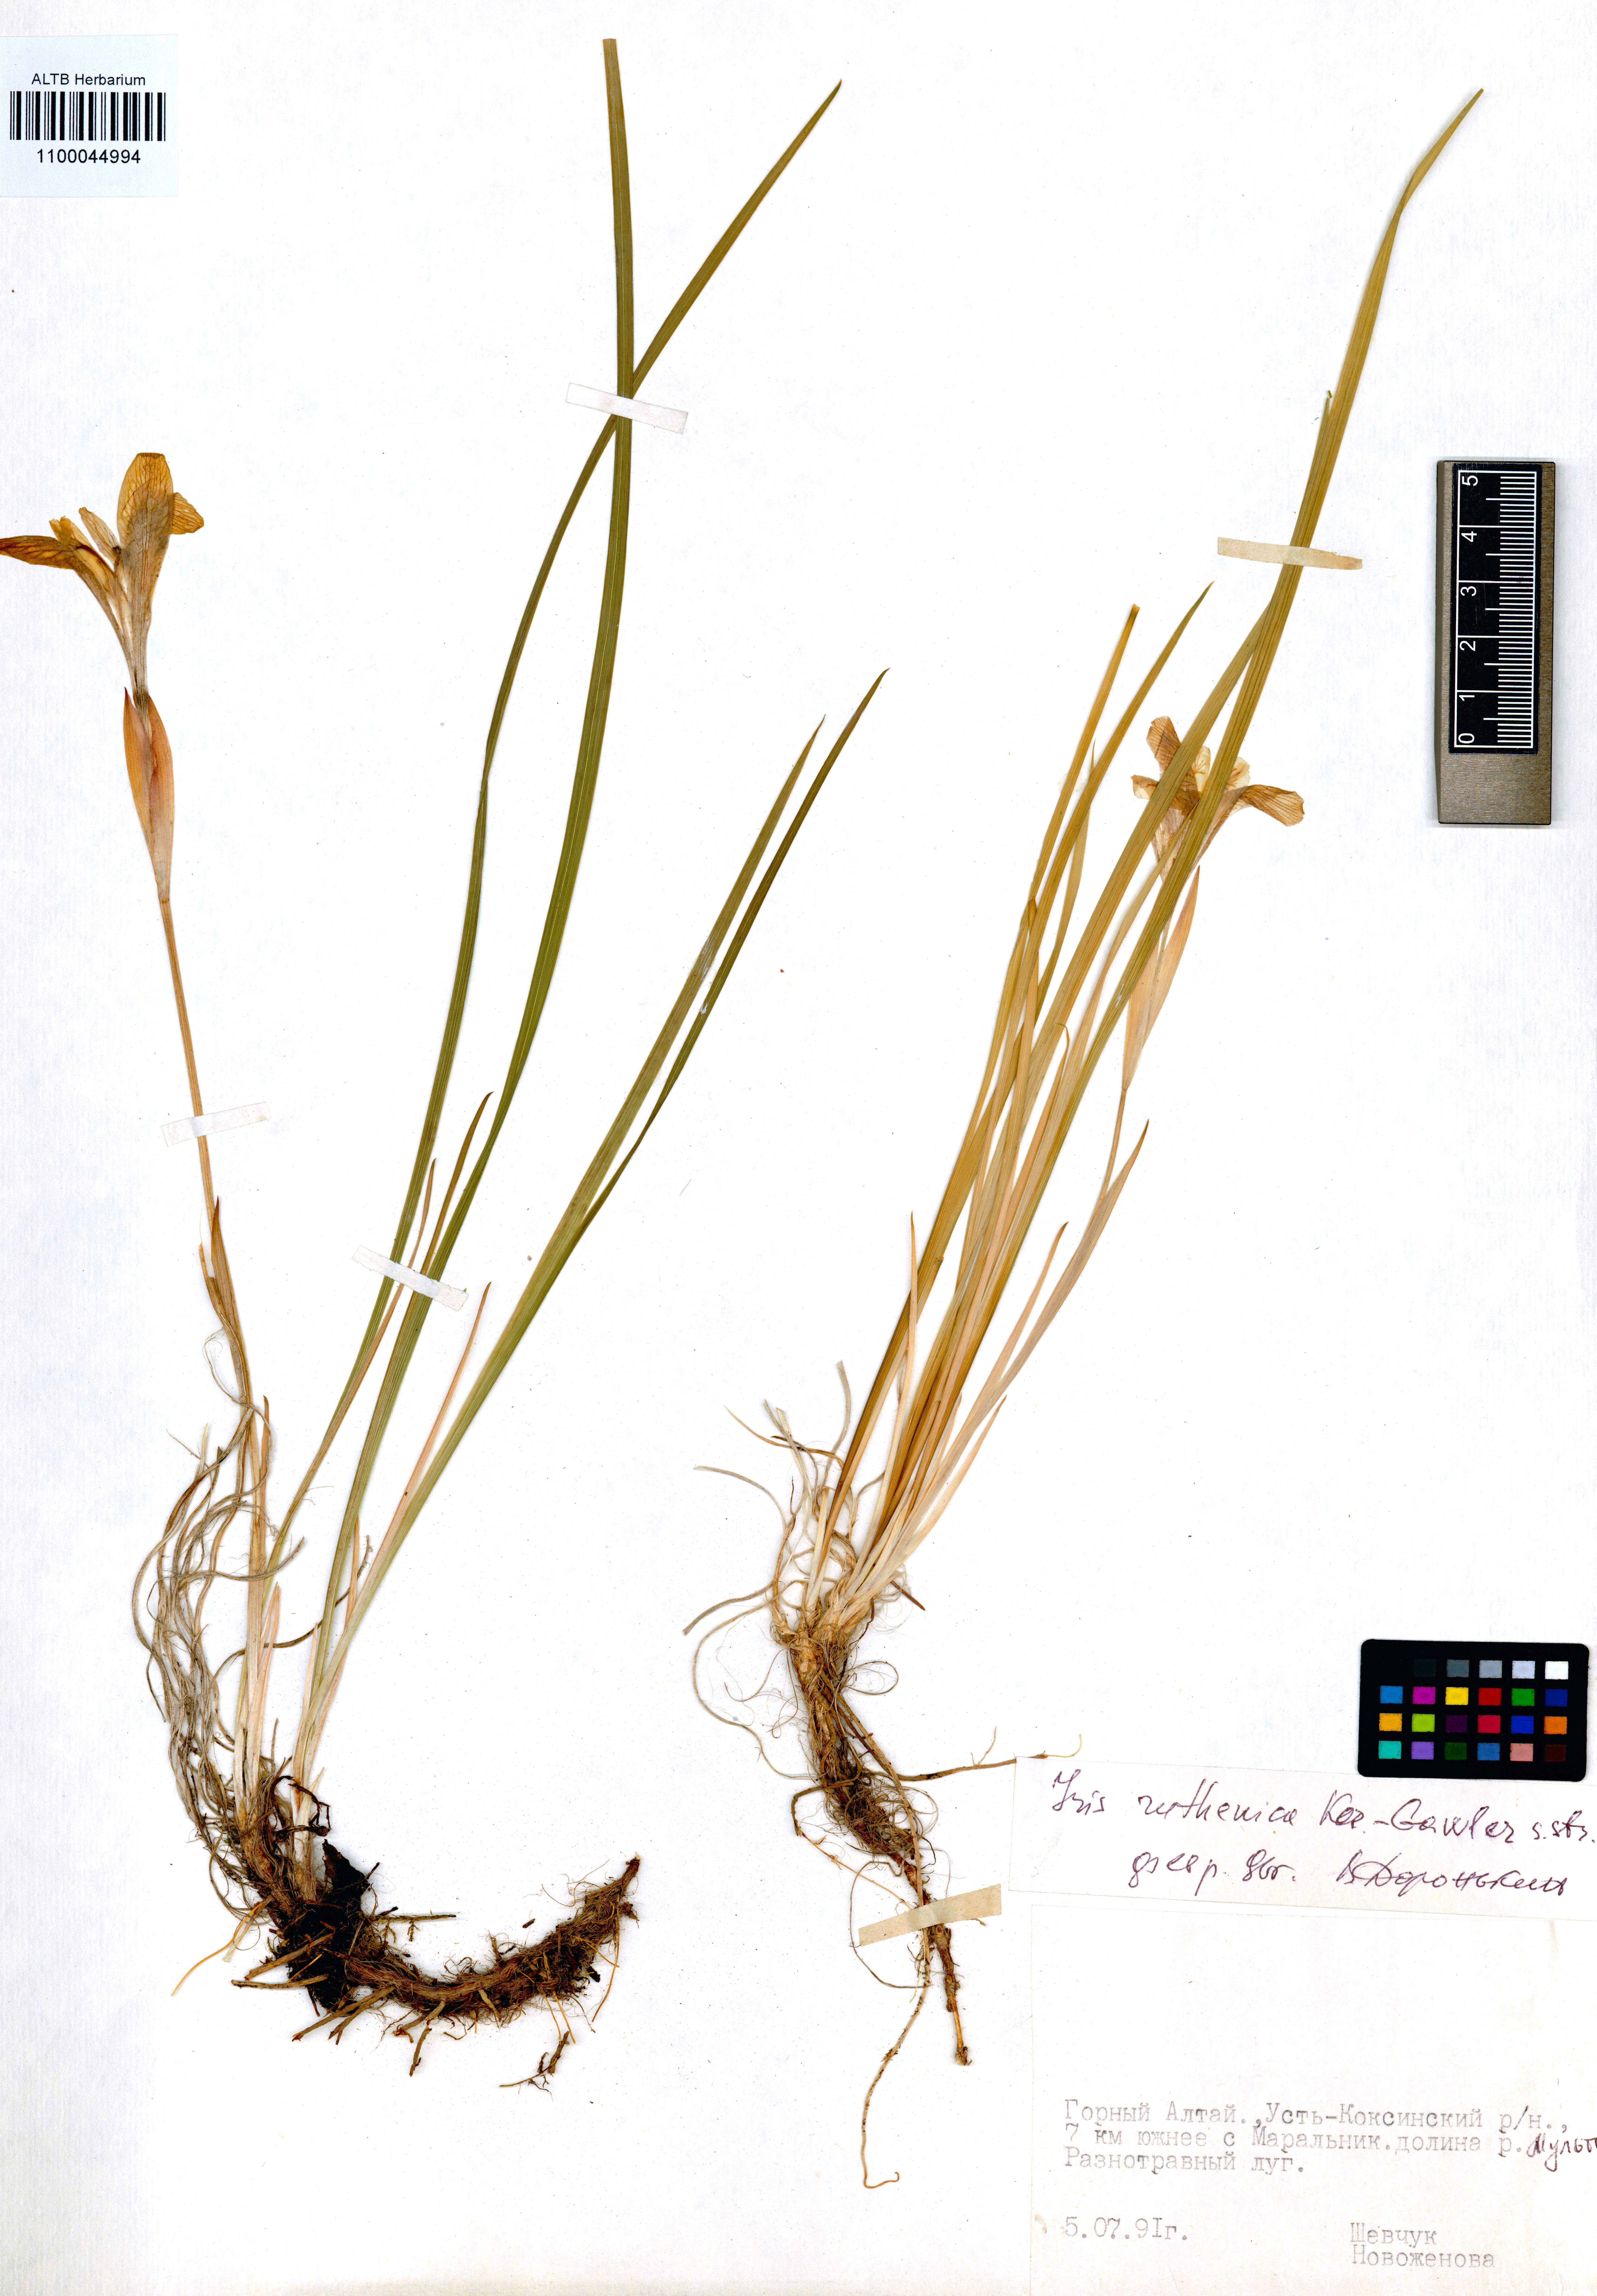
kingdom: Plantae
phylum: Tracheophyta
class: Liliopsida
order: Asparagales
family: Iridaceae
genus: Iris
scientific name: Iris ruthenica
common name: Purple-bract iris
